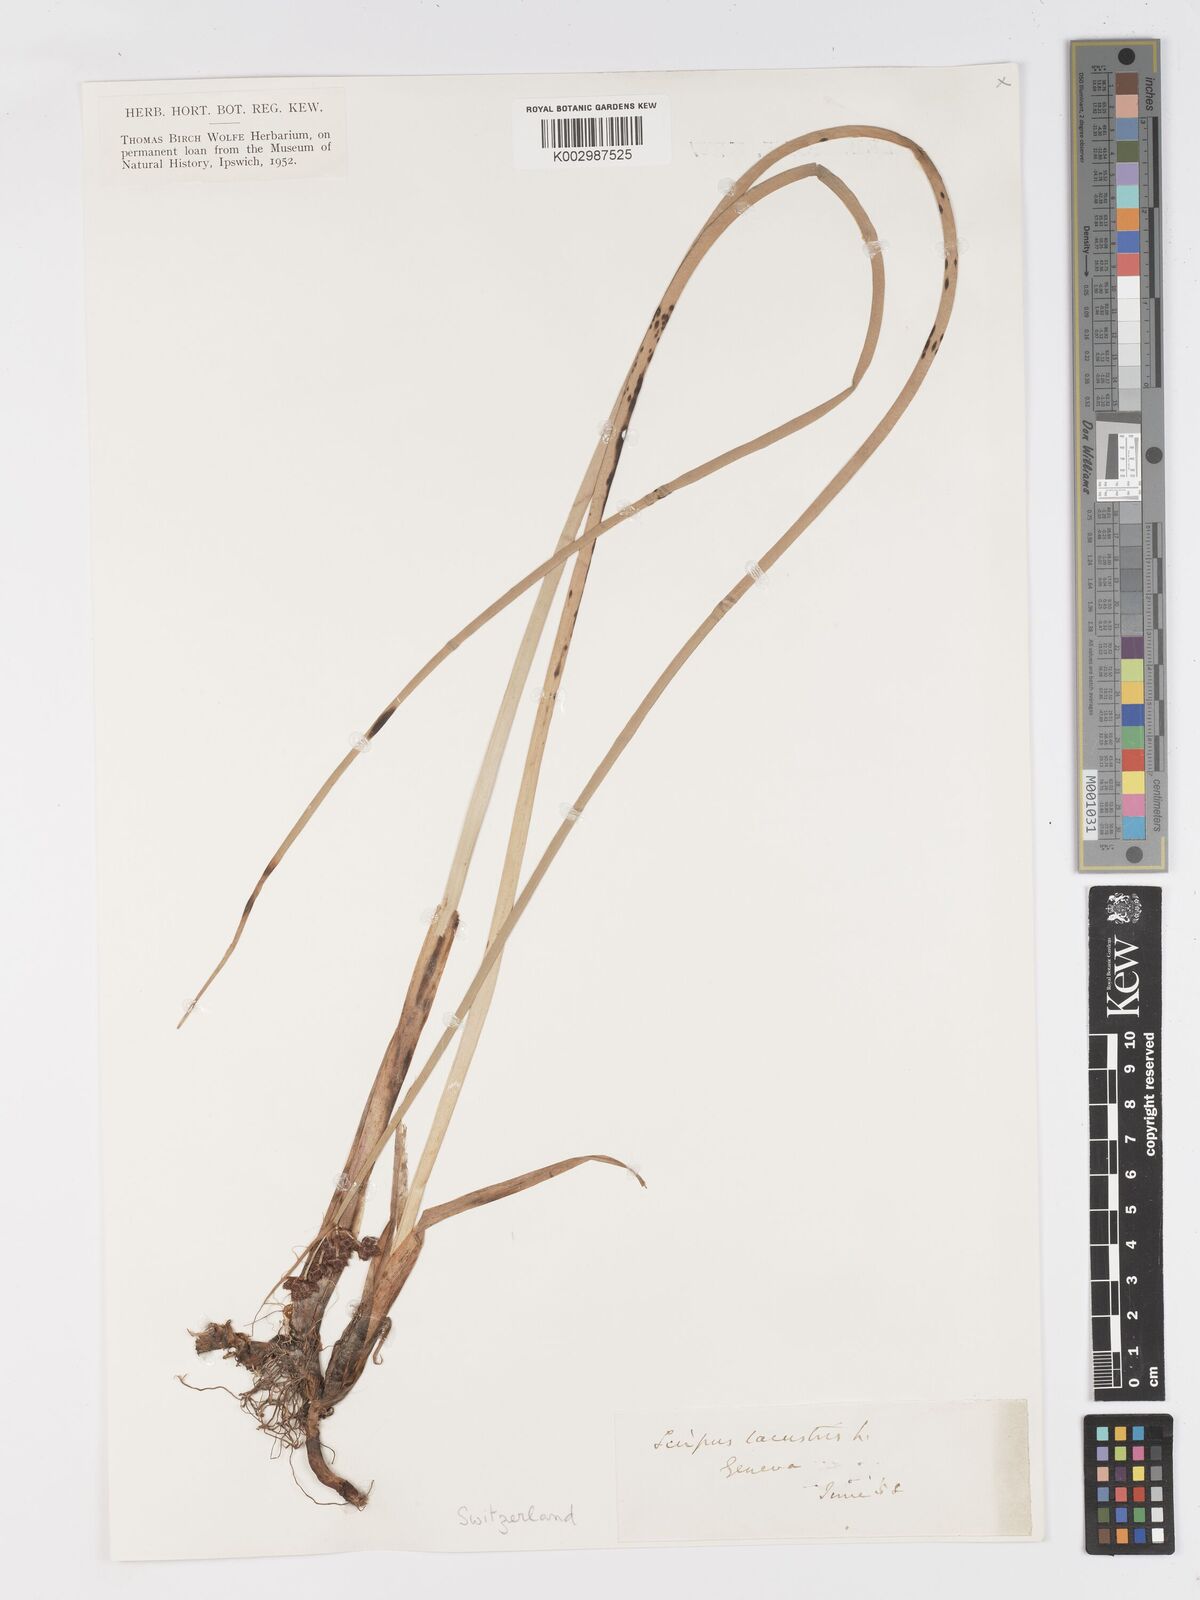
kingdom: Plantae
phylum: Tracheophyta
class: Liliopsida
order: Poales
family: Cyperaceae
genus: Schoenoplectus
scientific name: Schoenoplectus lacustris
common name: Common club-rush
